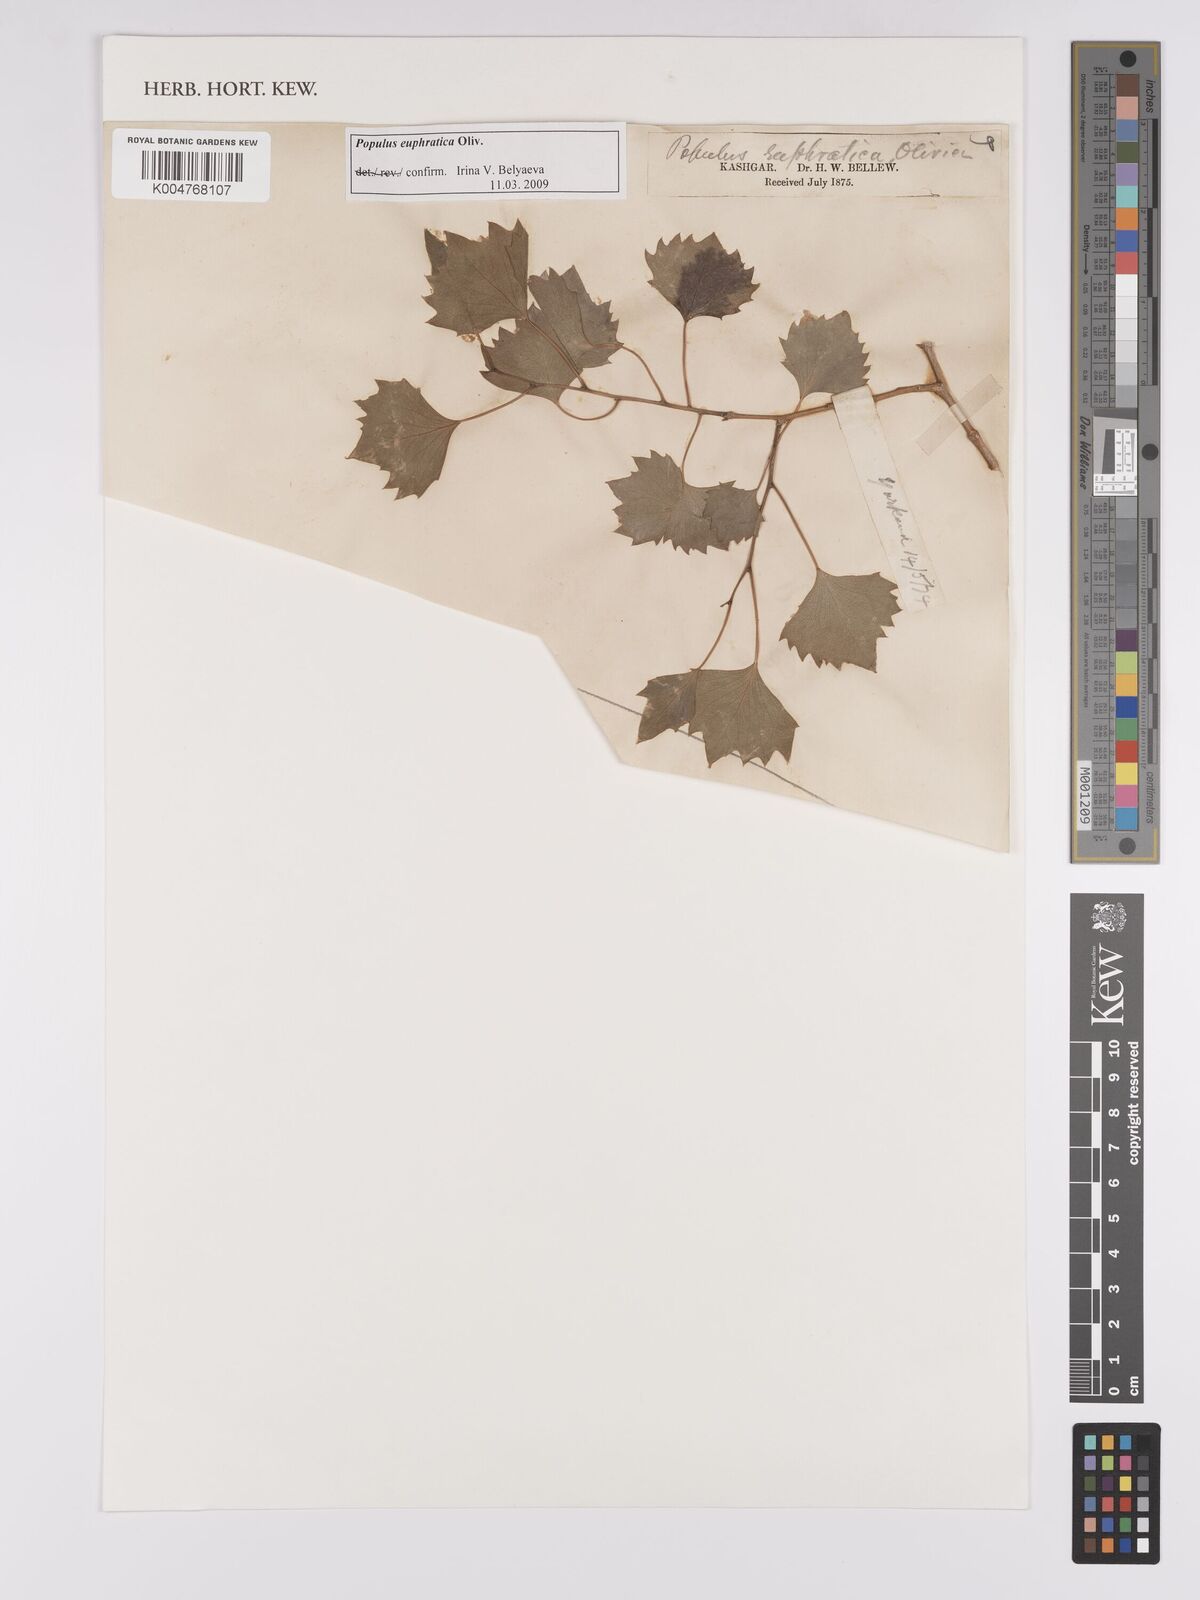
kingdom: Plantae
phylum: Tracheophyta
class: Magnoliopsida
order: Malpighiales
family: Salicaceae
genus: Populus
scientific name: Populus euphratica
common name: Euphrates poplar
